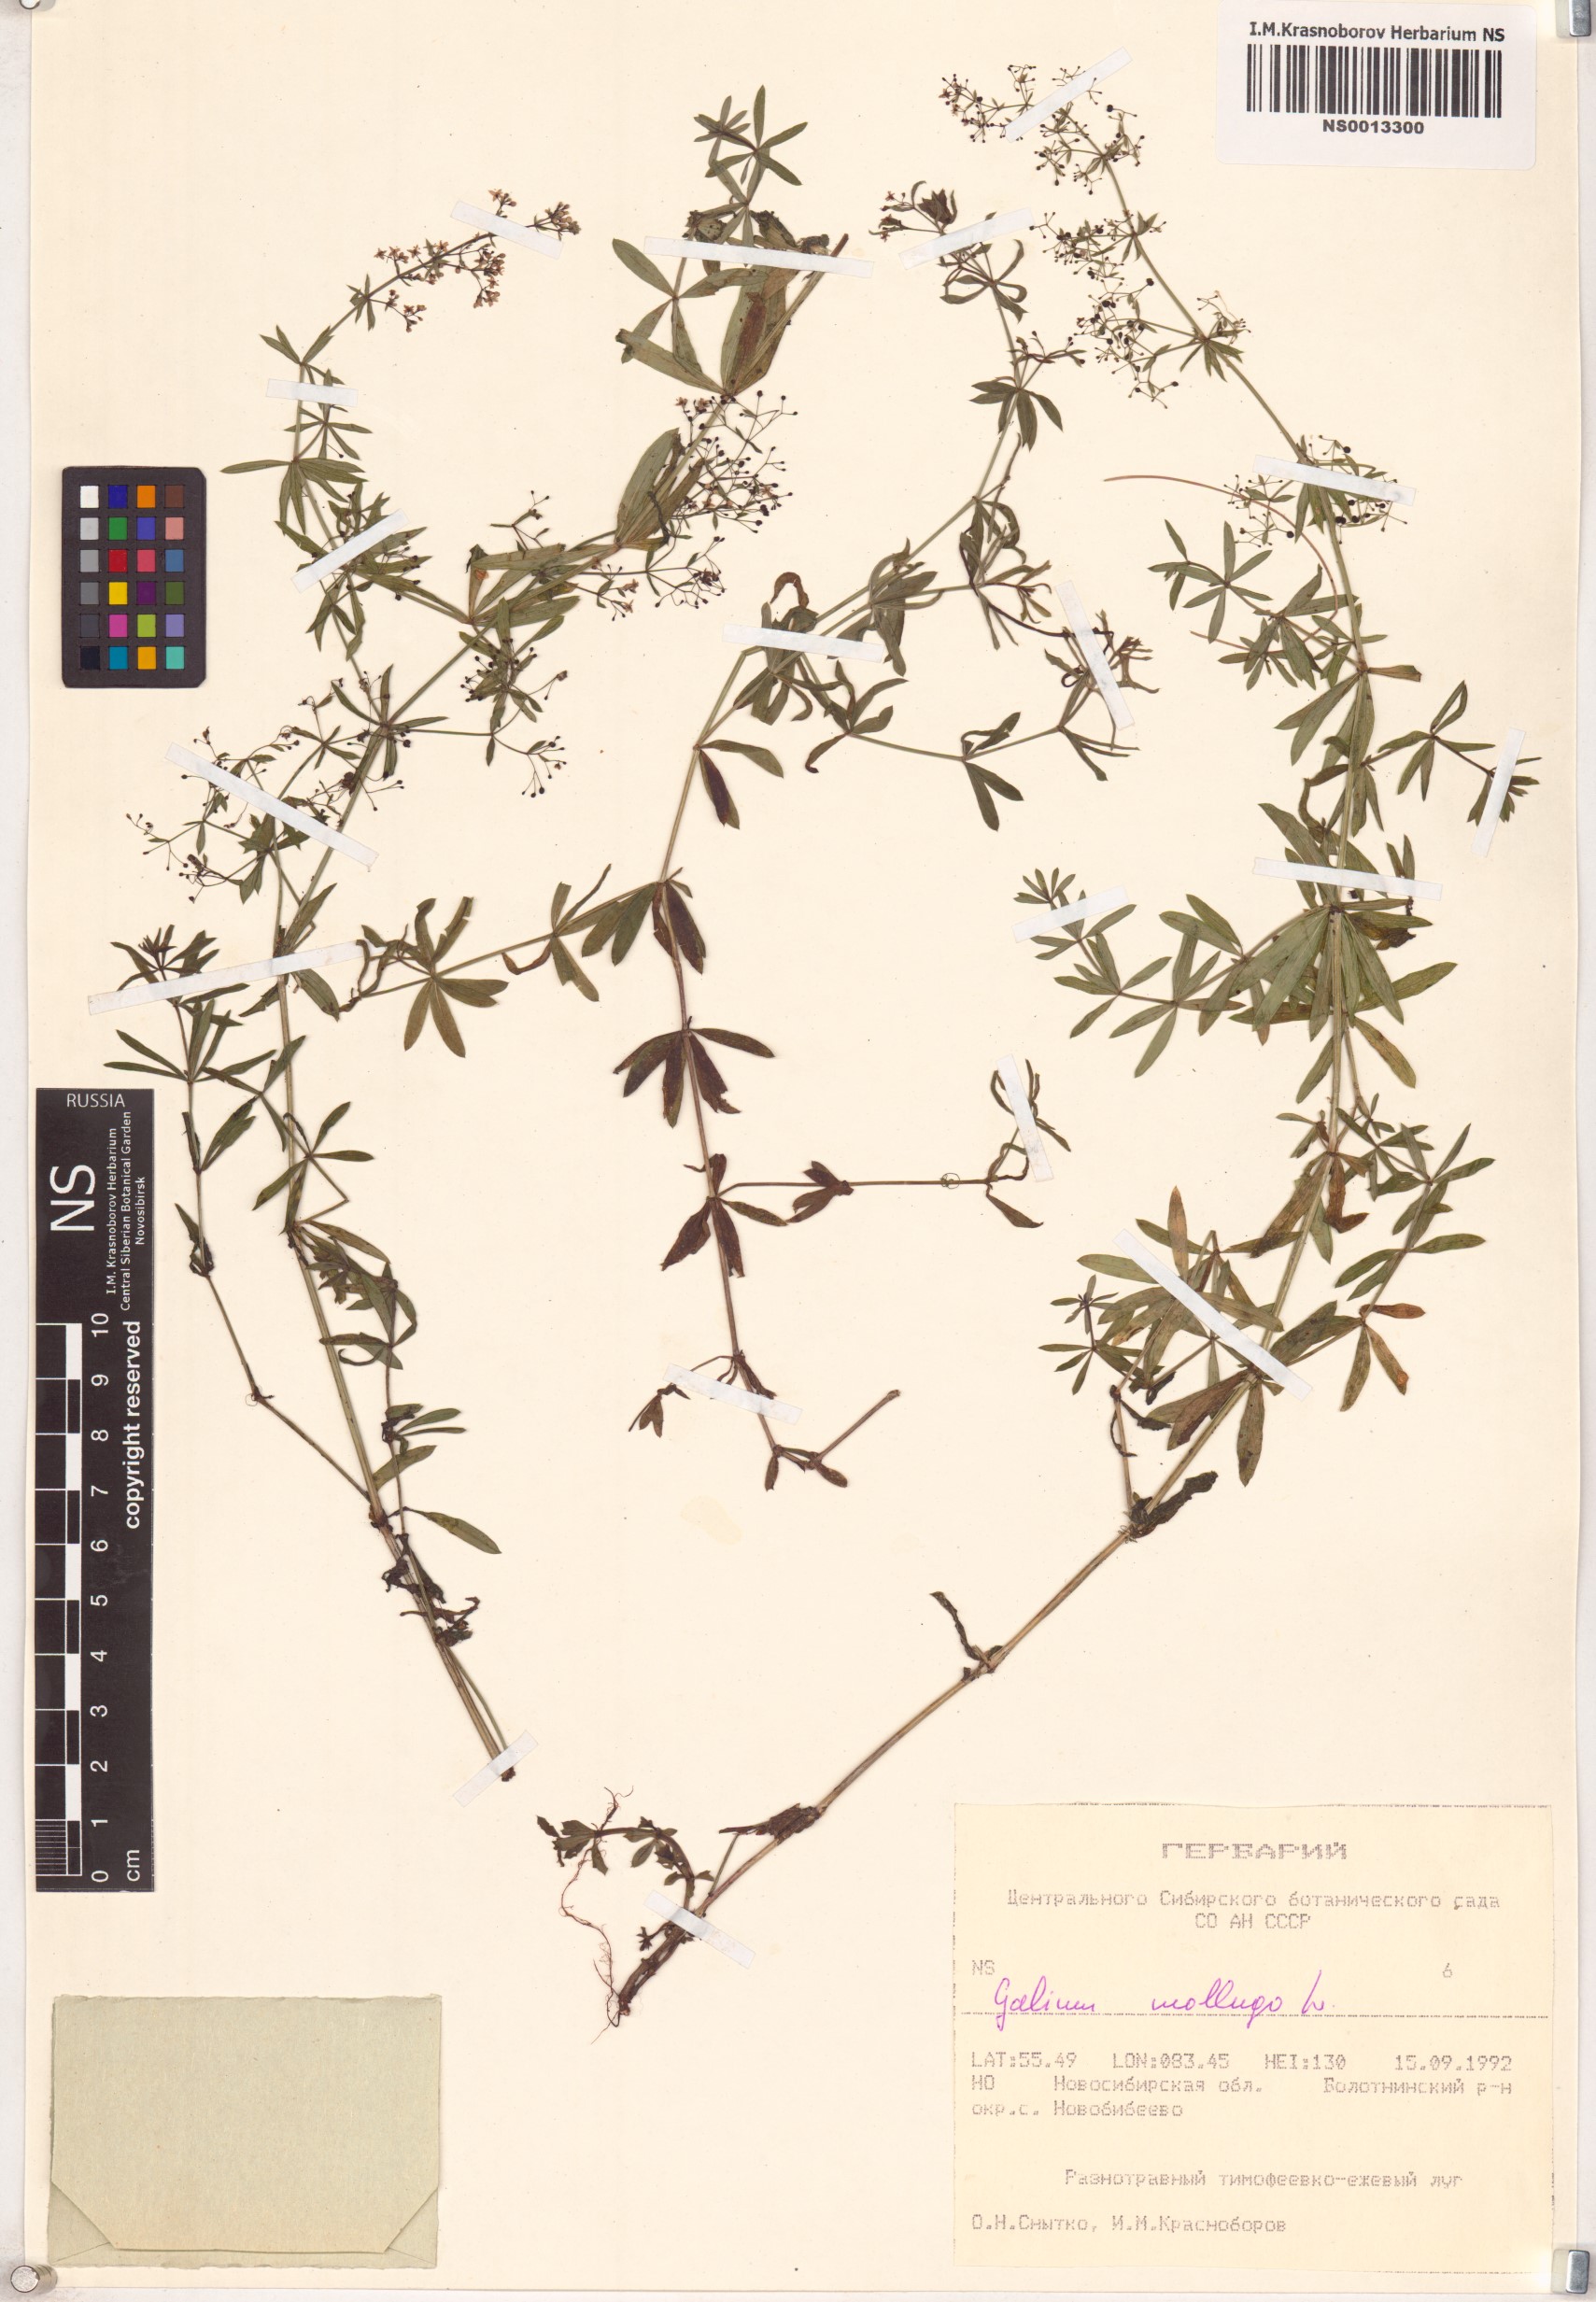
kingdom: Plantae
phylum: Tracheophyta
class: Magnoliopsida
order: Gentianales
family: Rubiaceae
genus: Galium
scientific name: Galium mollugo
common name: Hedge bedstraw
